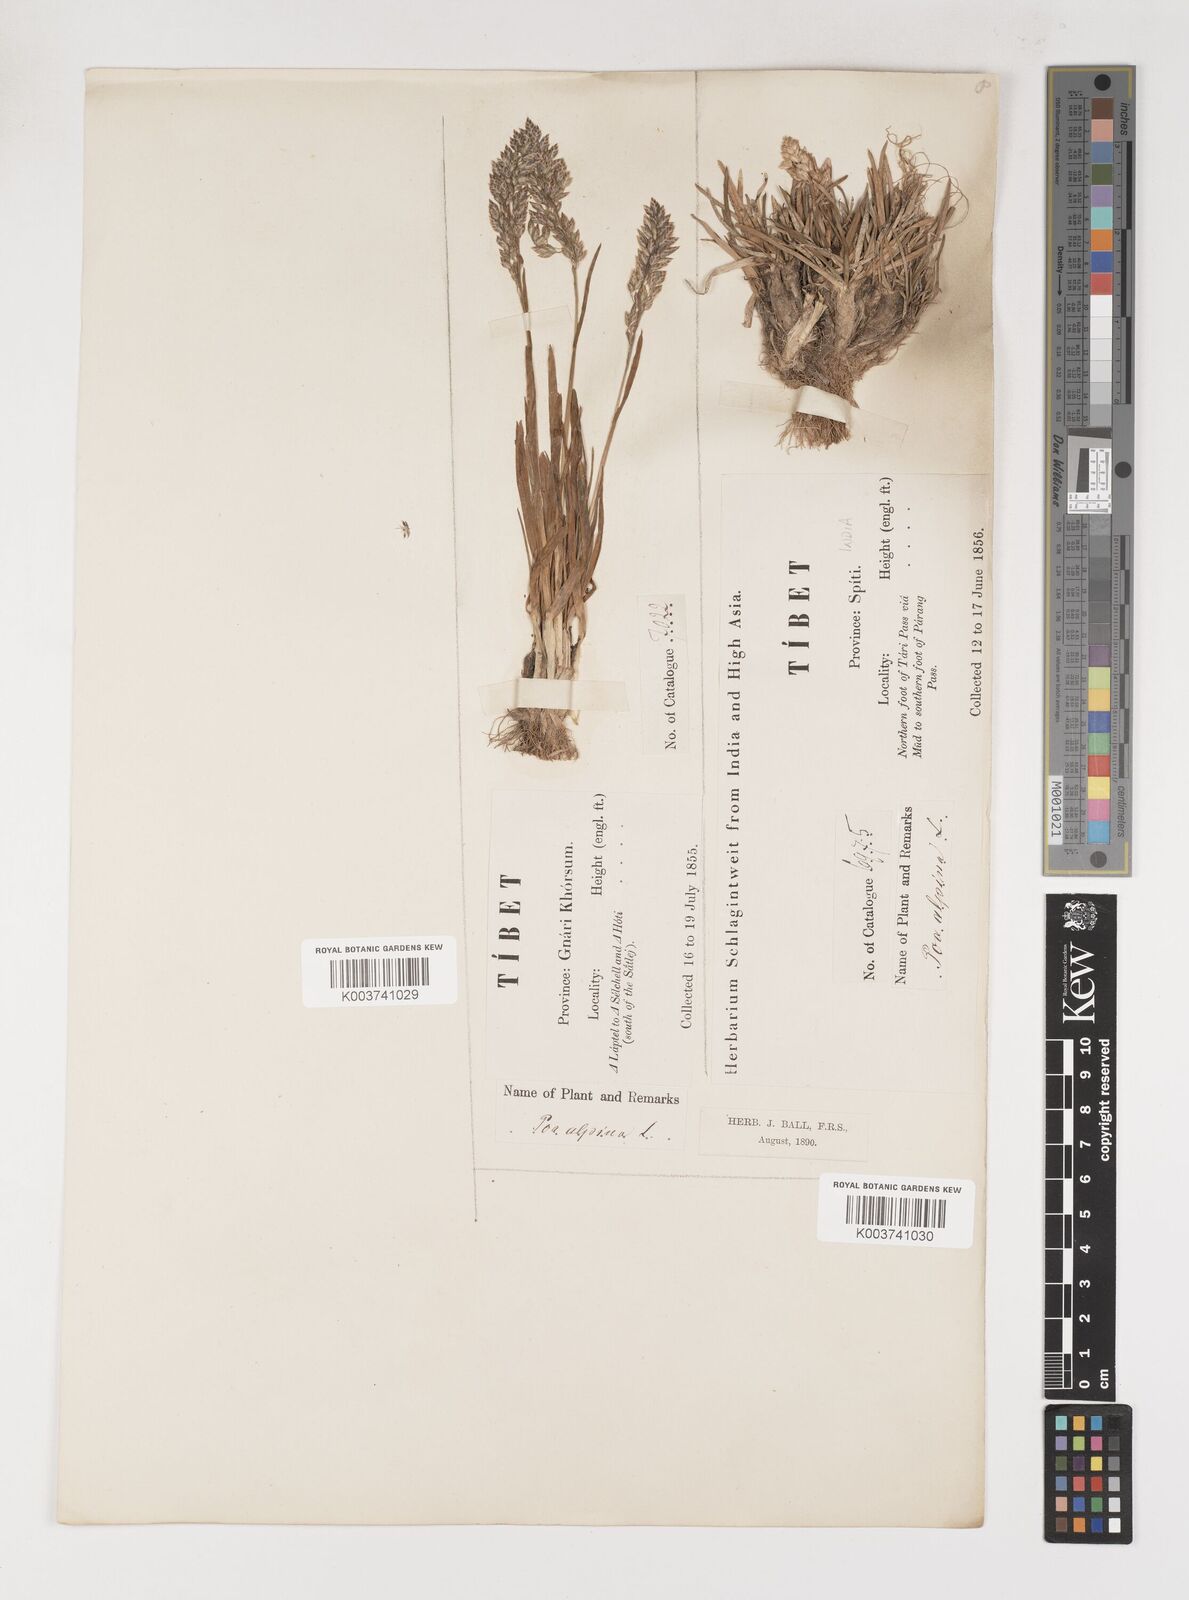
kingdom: Plantae
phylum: Tracheophyta
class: Liliopsida
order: Poales
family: Poaceae
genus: Poa
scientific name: Poa alpina
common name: Alpine bluegrass
